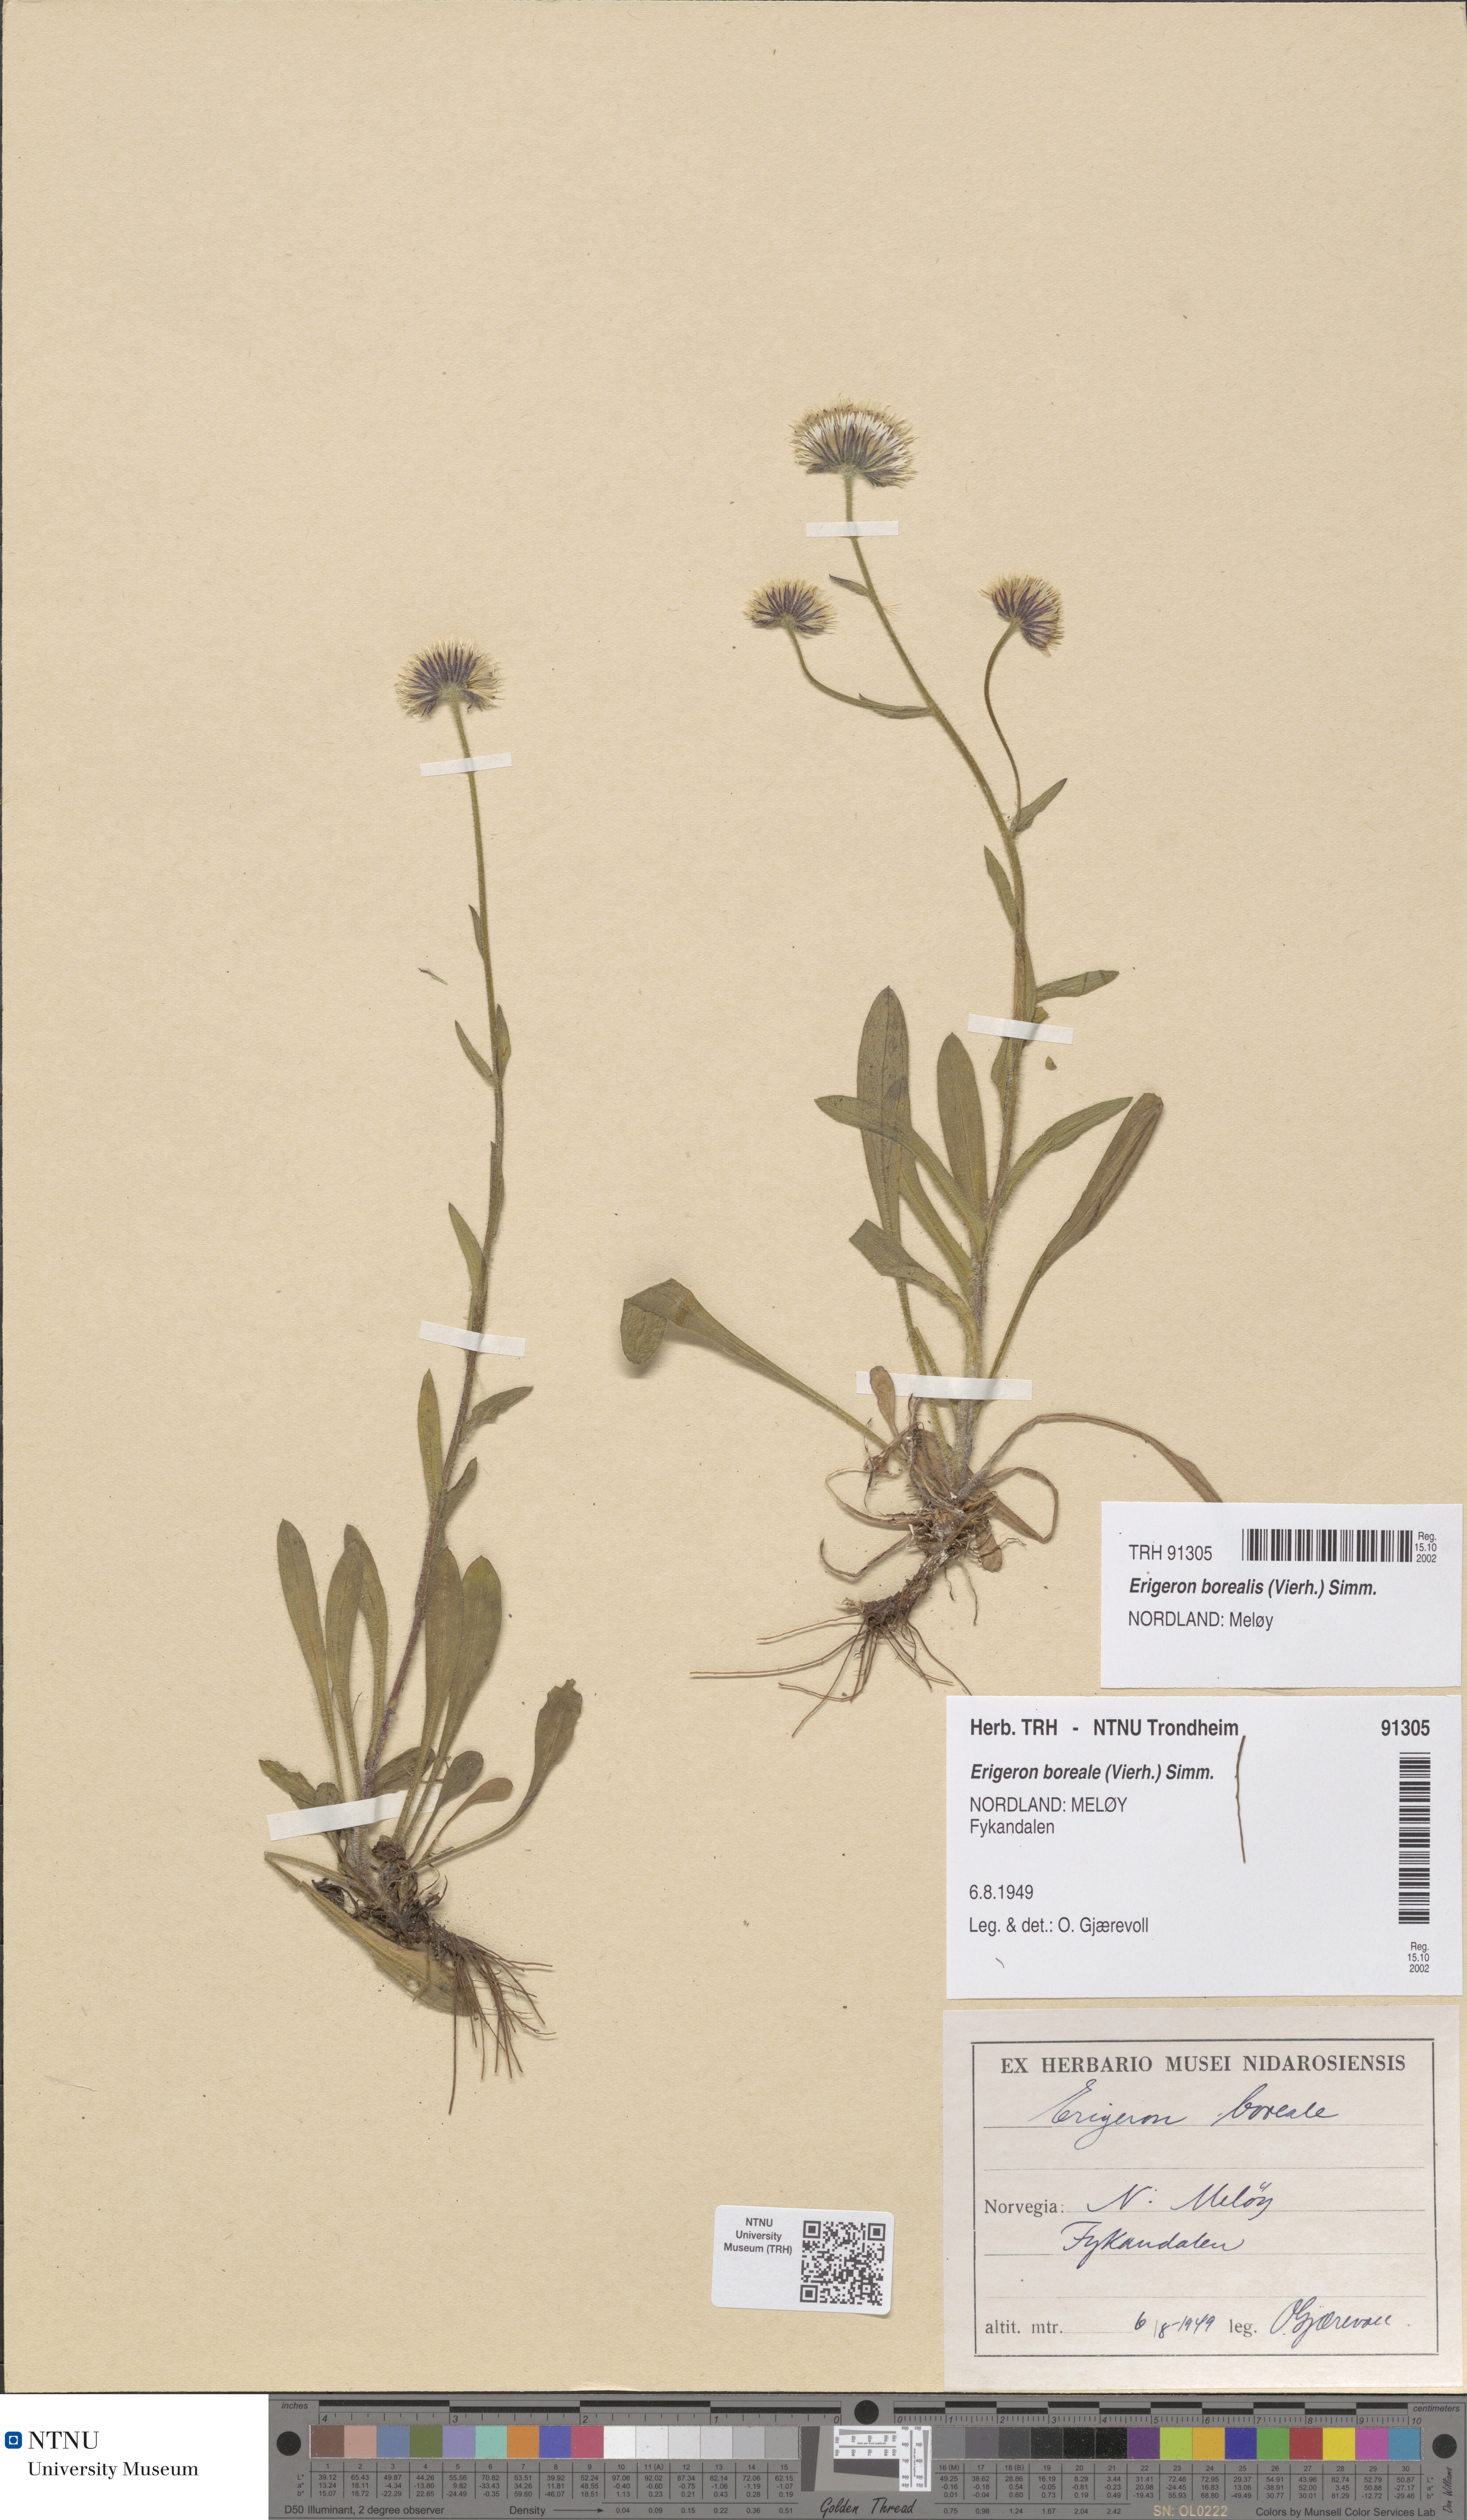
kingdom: Plantae
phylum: Tracheophyta
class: Magnoliopsida
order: Asterales
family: Asteraceae
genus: Erigeron
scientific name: Erigeron borealis
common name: Alpine fleabane
